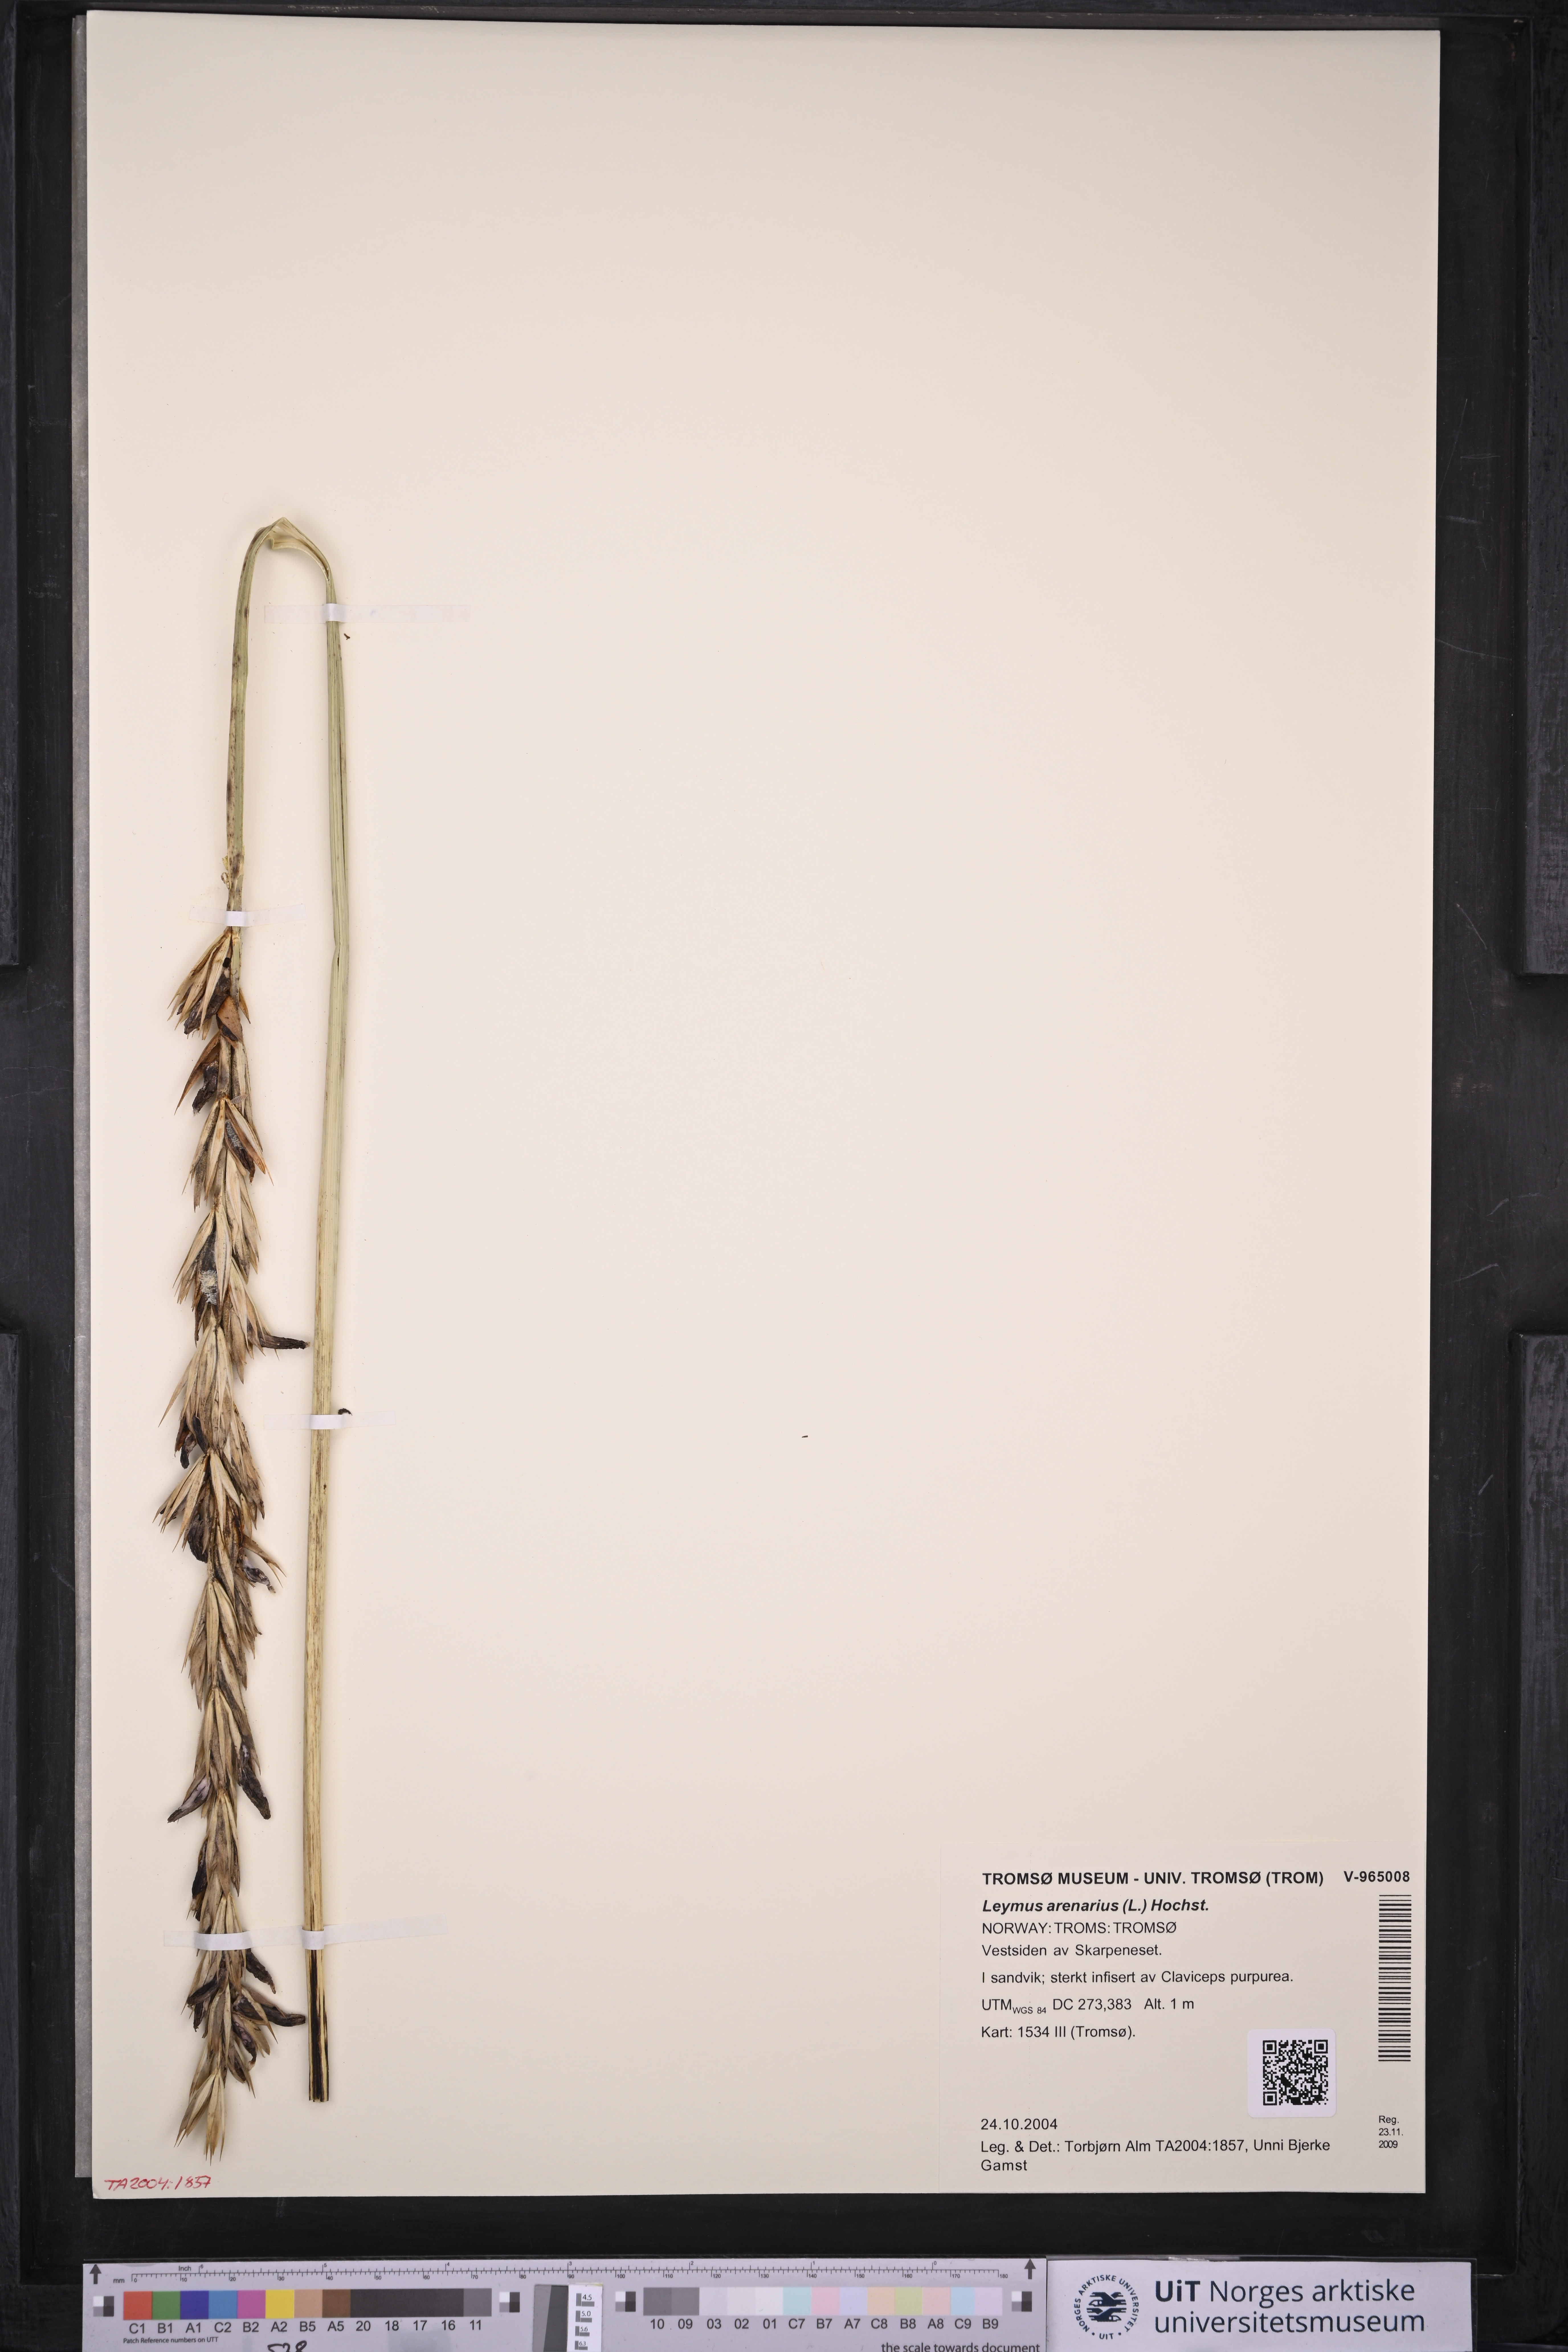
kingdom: Plantae
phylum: Tracheophyta
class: Liliopsida
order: Poales
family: Poaceae
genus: Leymus
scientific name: Leymus arenarius
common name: Lyme-grass
